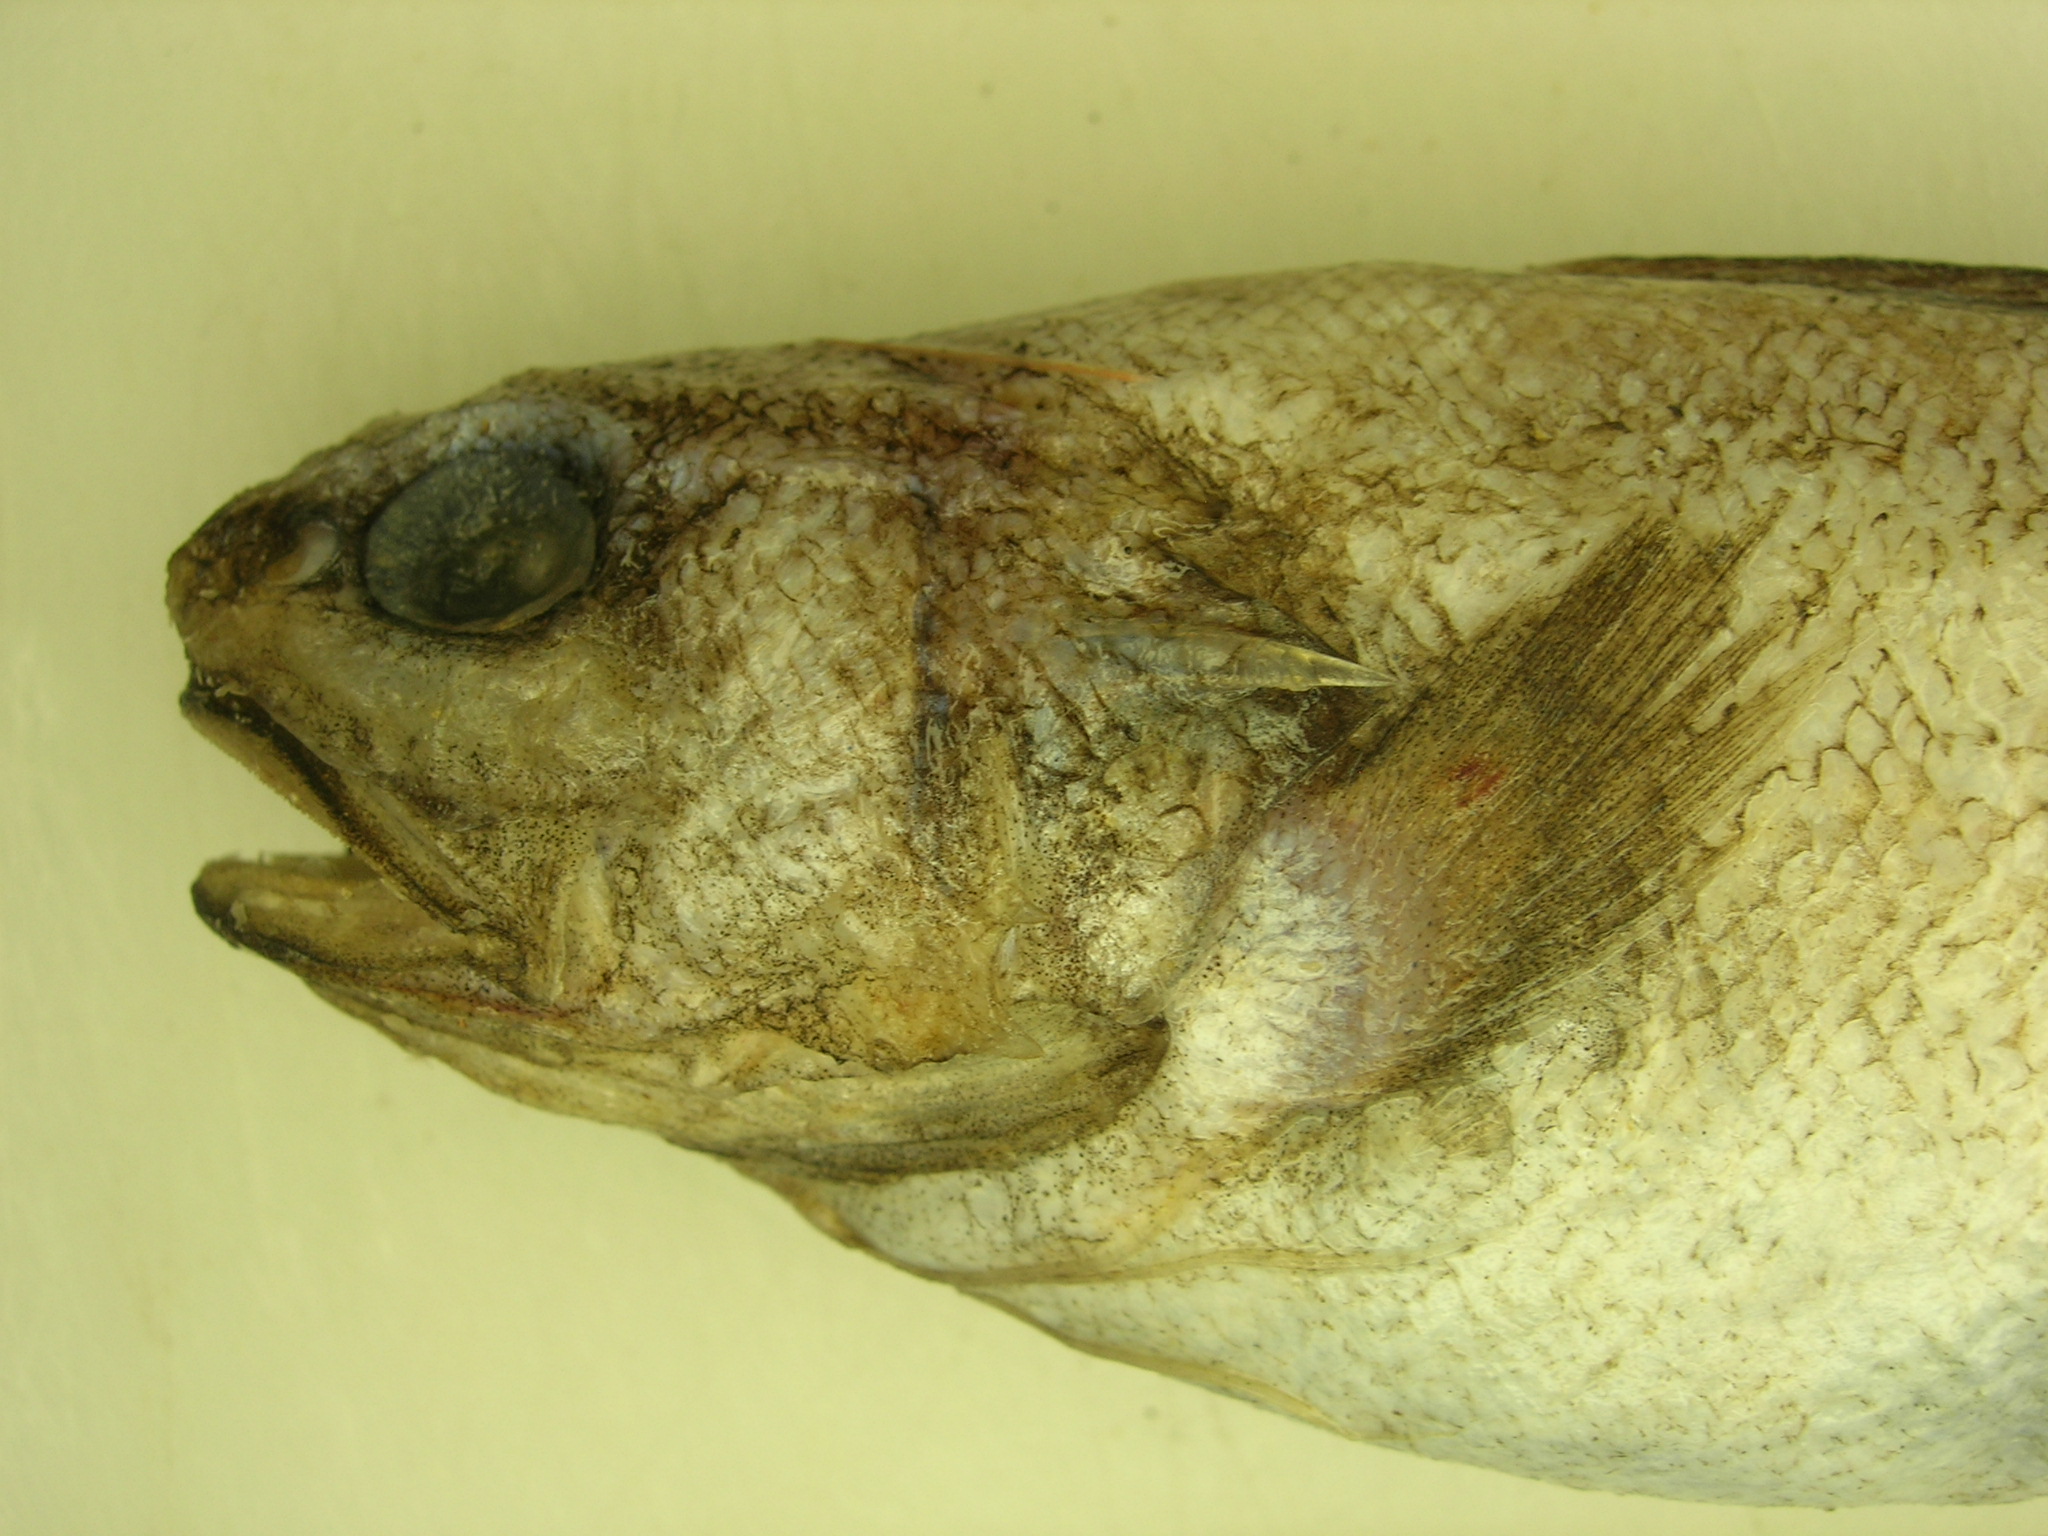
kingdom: Animalia
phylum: Chordata
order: Ophidiiformes
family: Ophidiidae
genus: Neobythites
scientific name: Neobythites analis
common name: Black-edged cusk-eel
